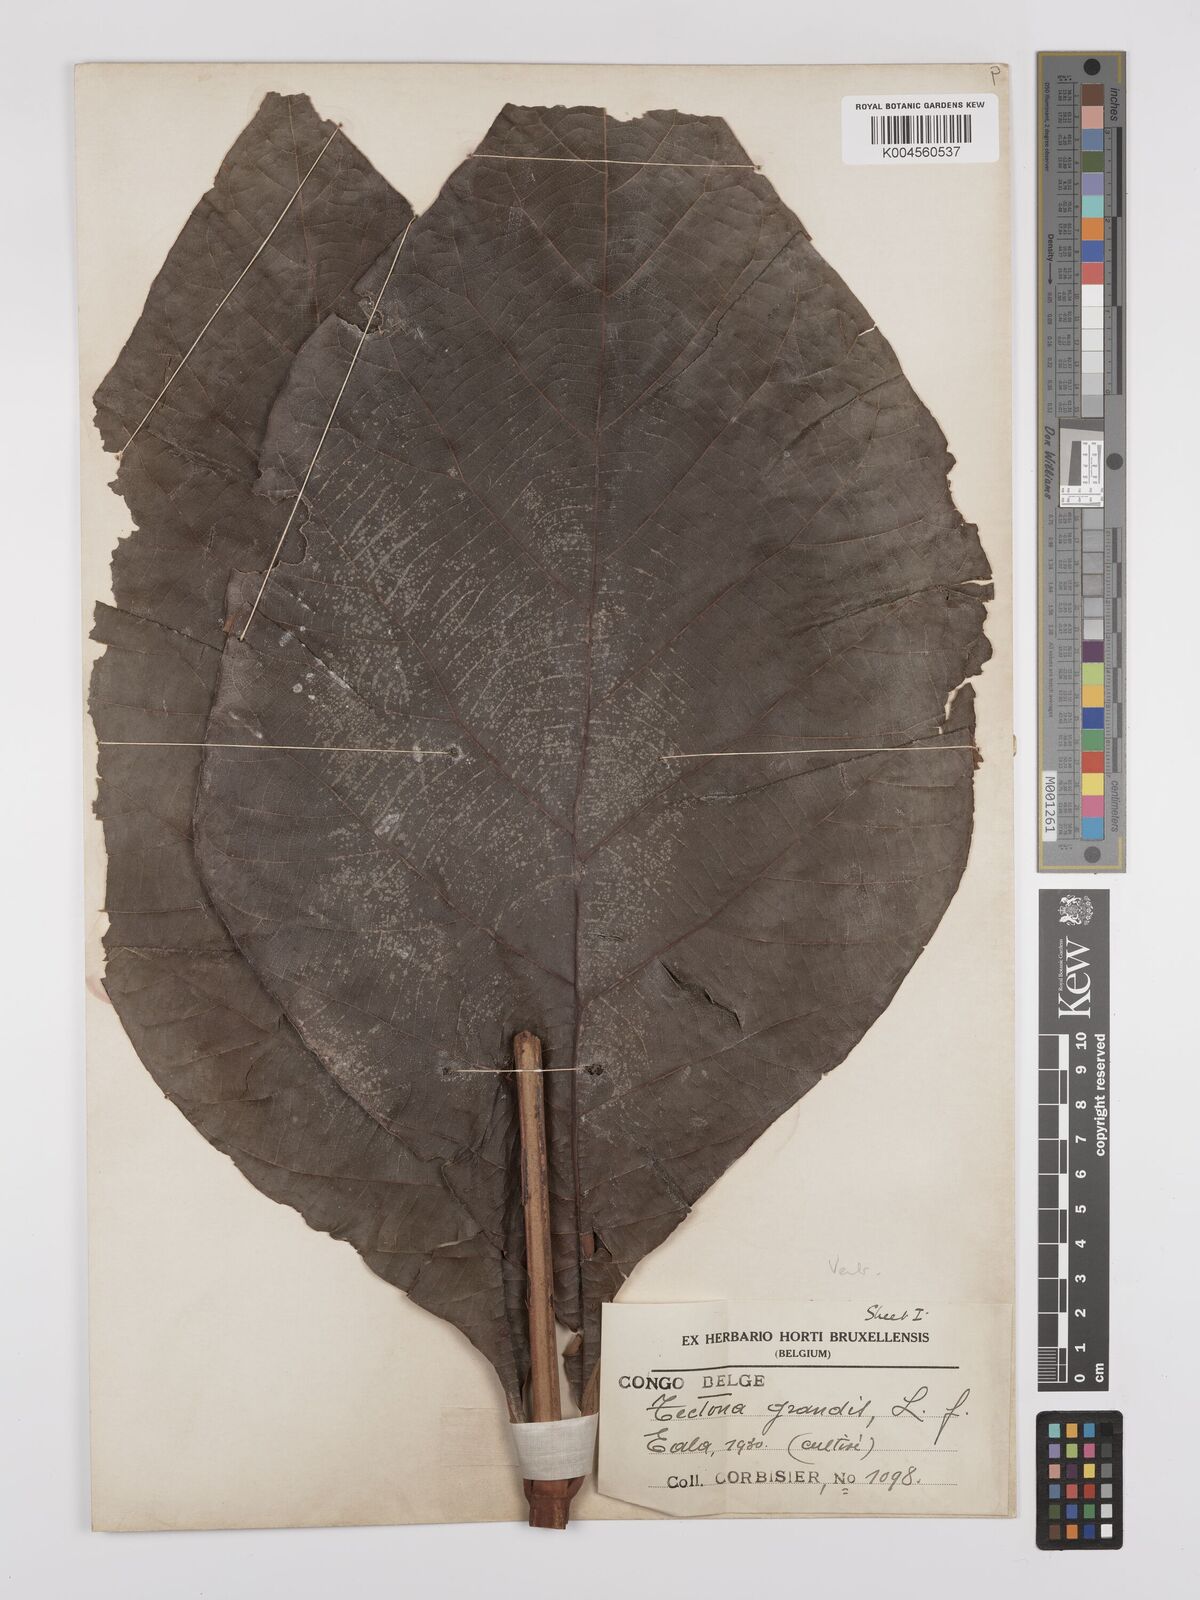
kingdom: Plantae
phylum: Tracheophyta
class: Magnoliopsida
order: Lamiales
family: Lamiaceae
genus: Tectona
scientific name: Tectona grandis
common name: Teak
